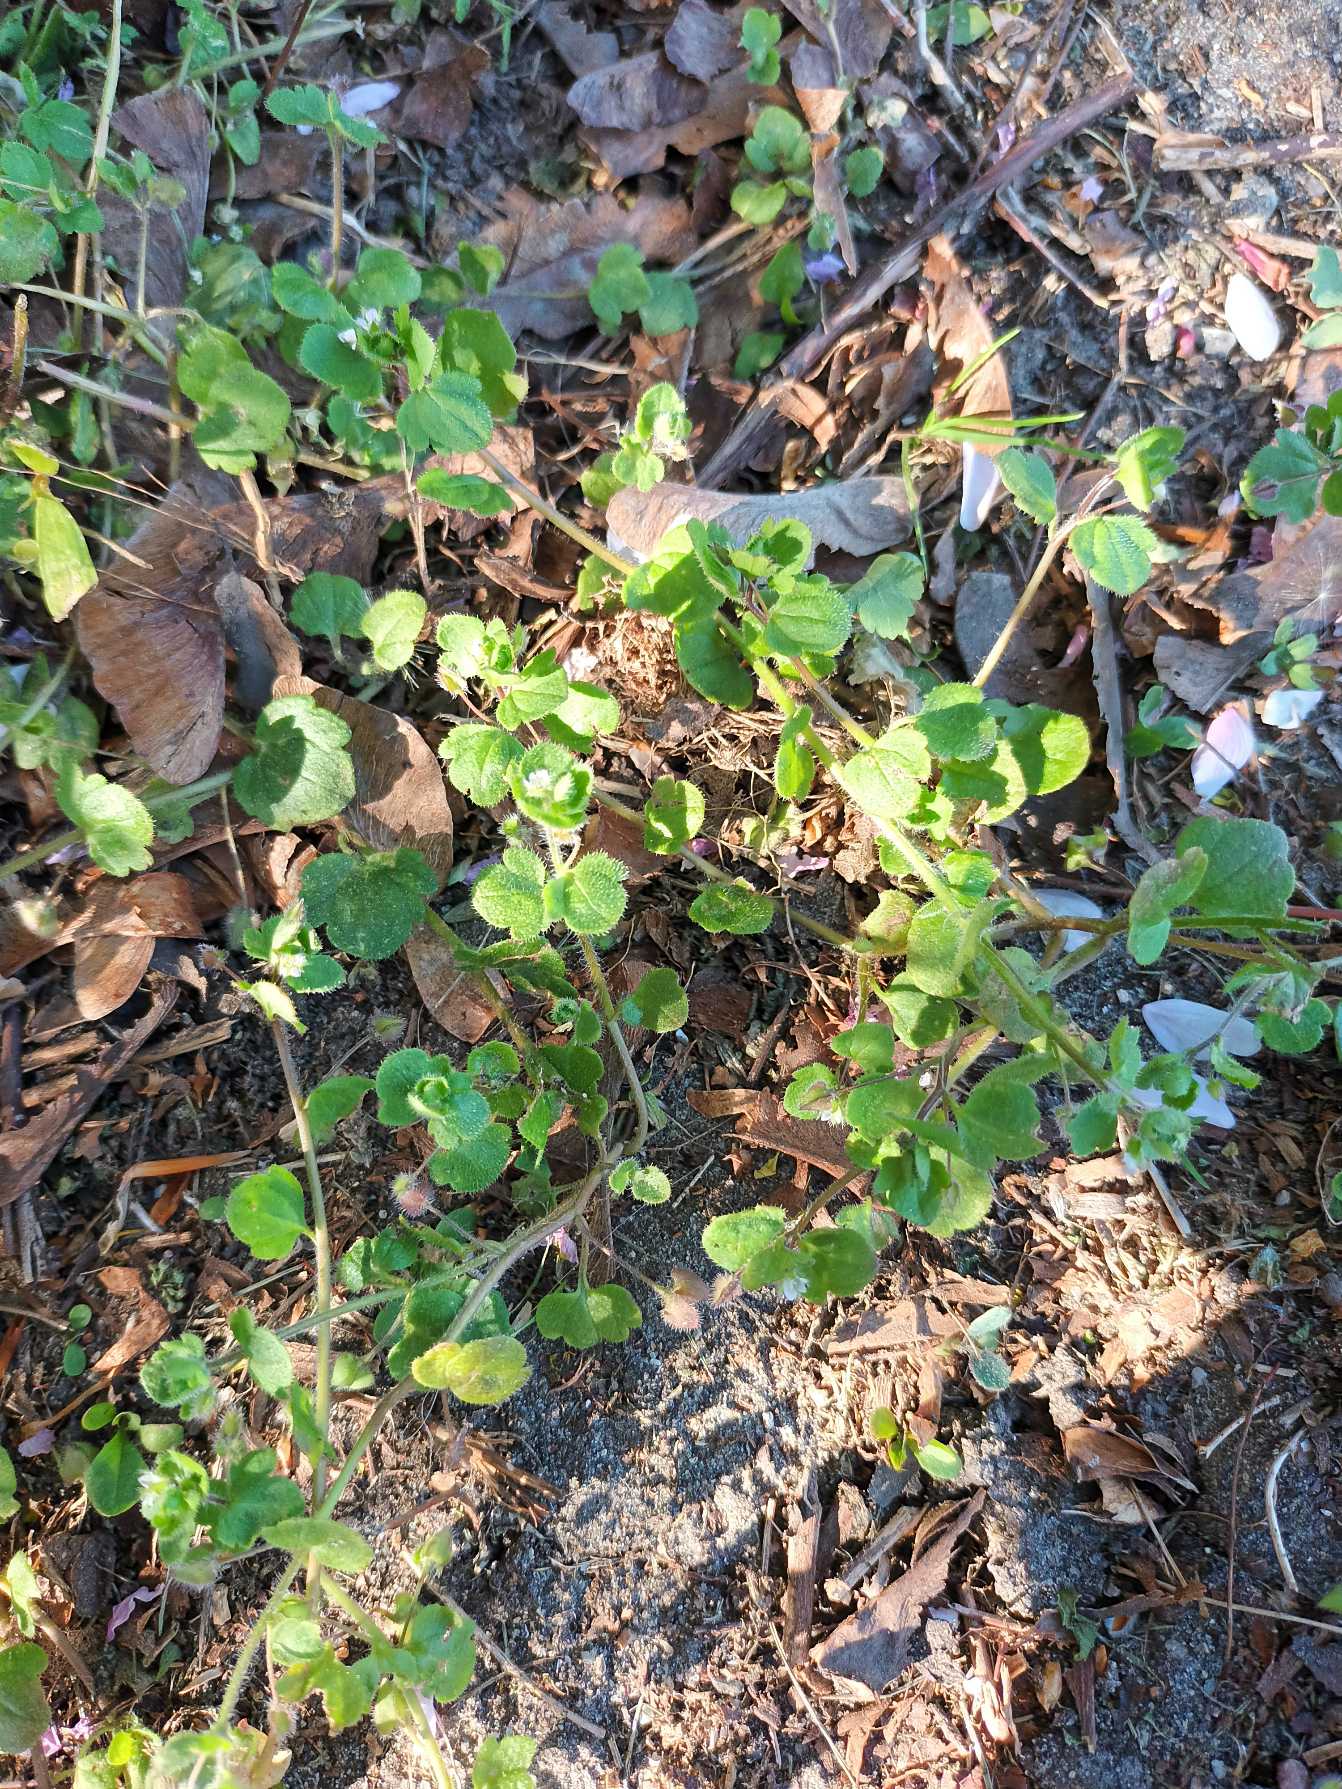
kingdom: Plantae
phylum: Tracheophyta
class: Magnoliopsida
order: Lamiales
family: Plantaginaceae
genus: Veronica
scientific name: Veronica sublobata
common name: Krat-ærenpris
